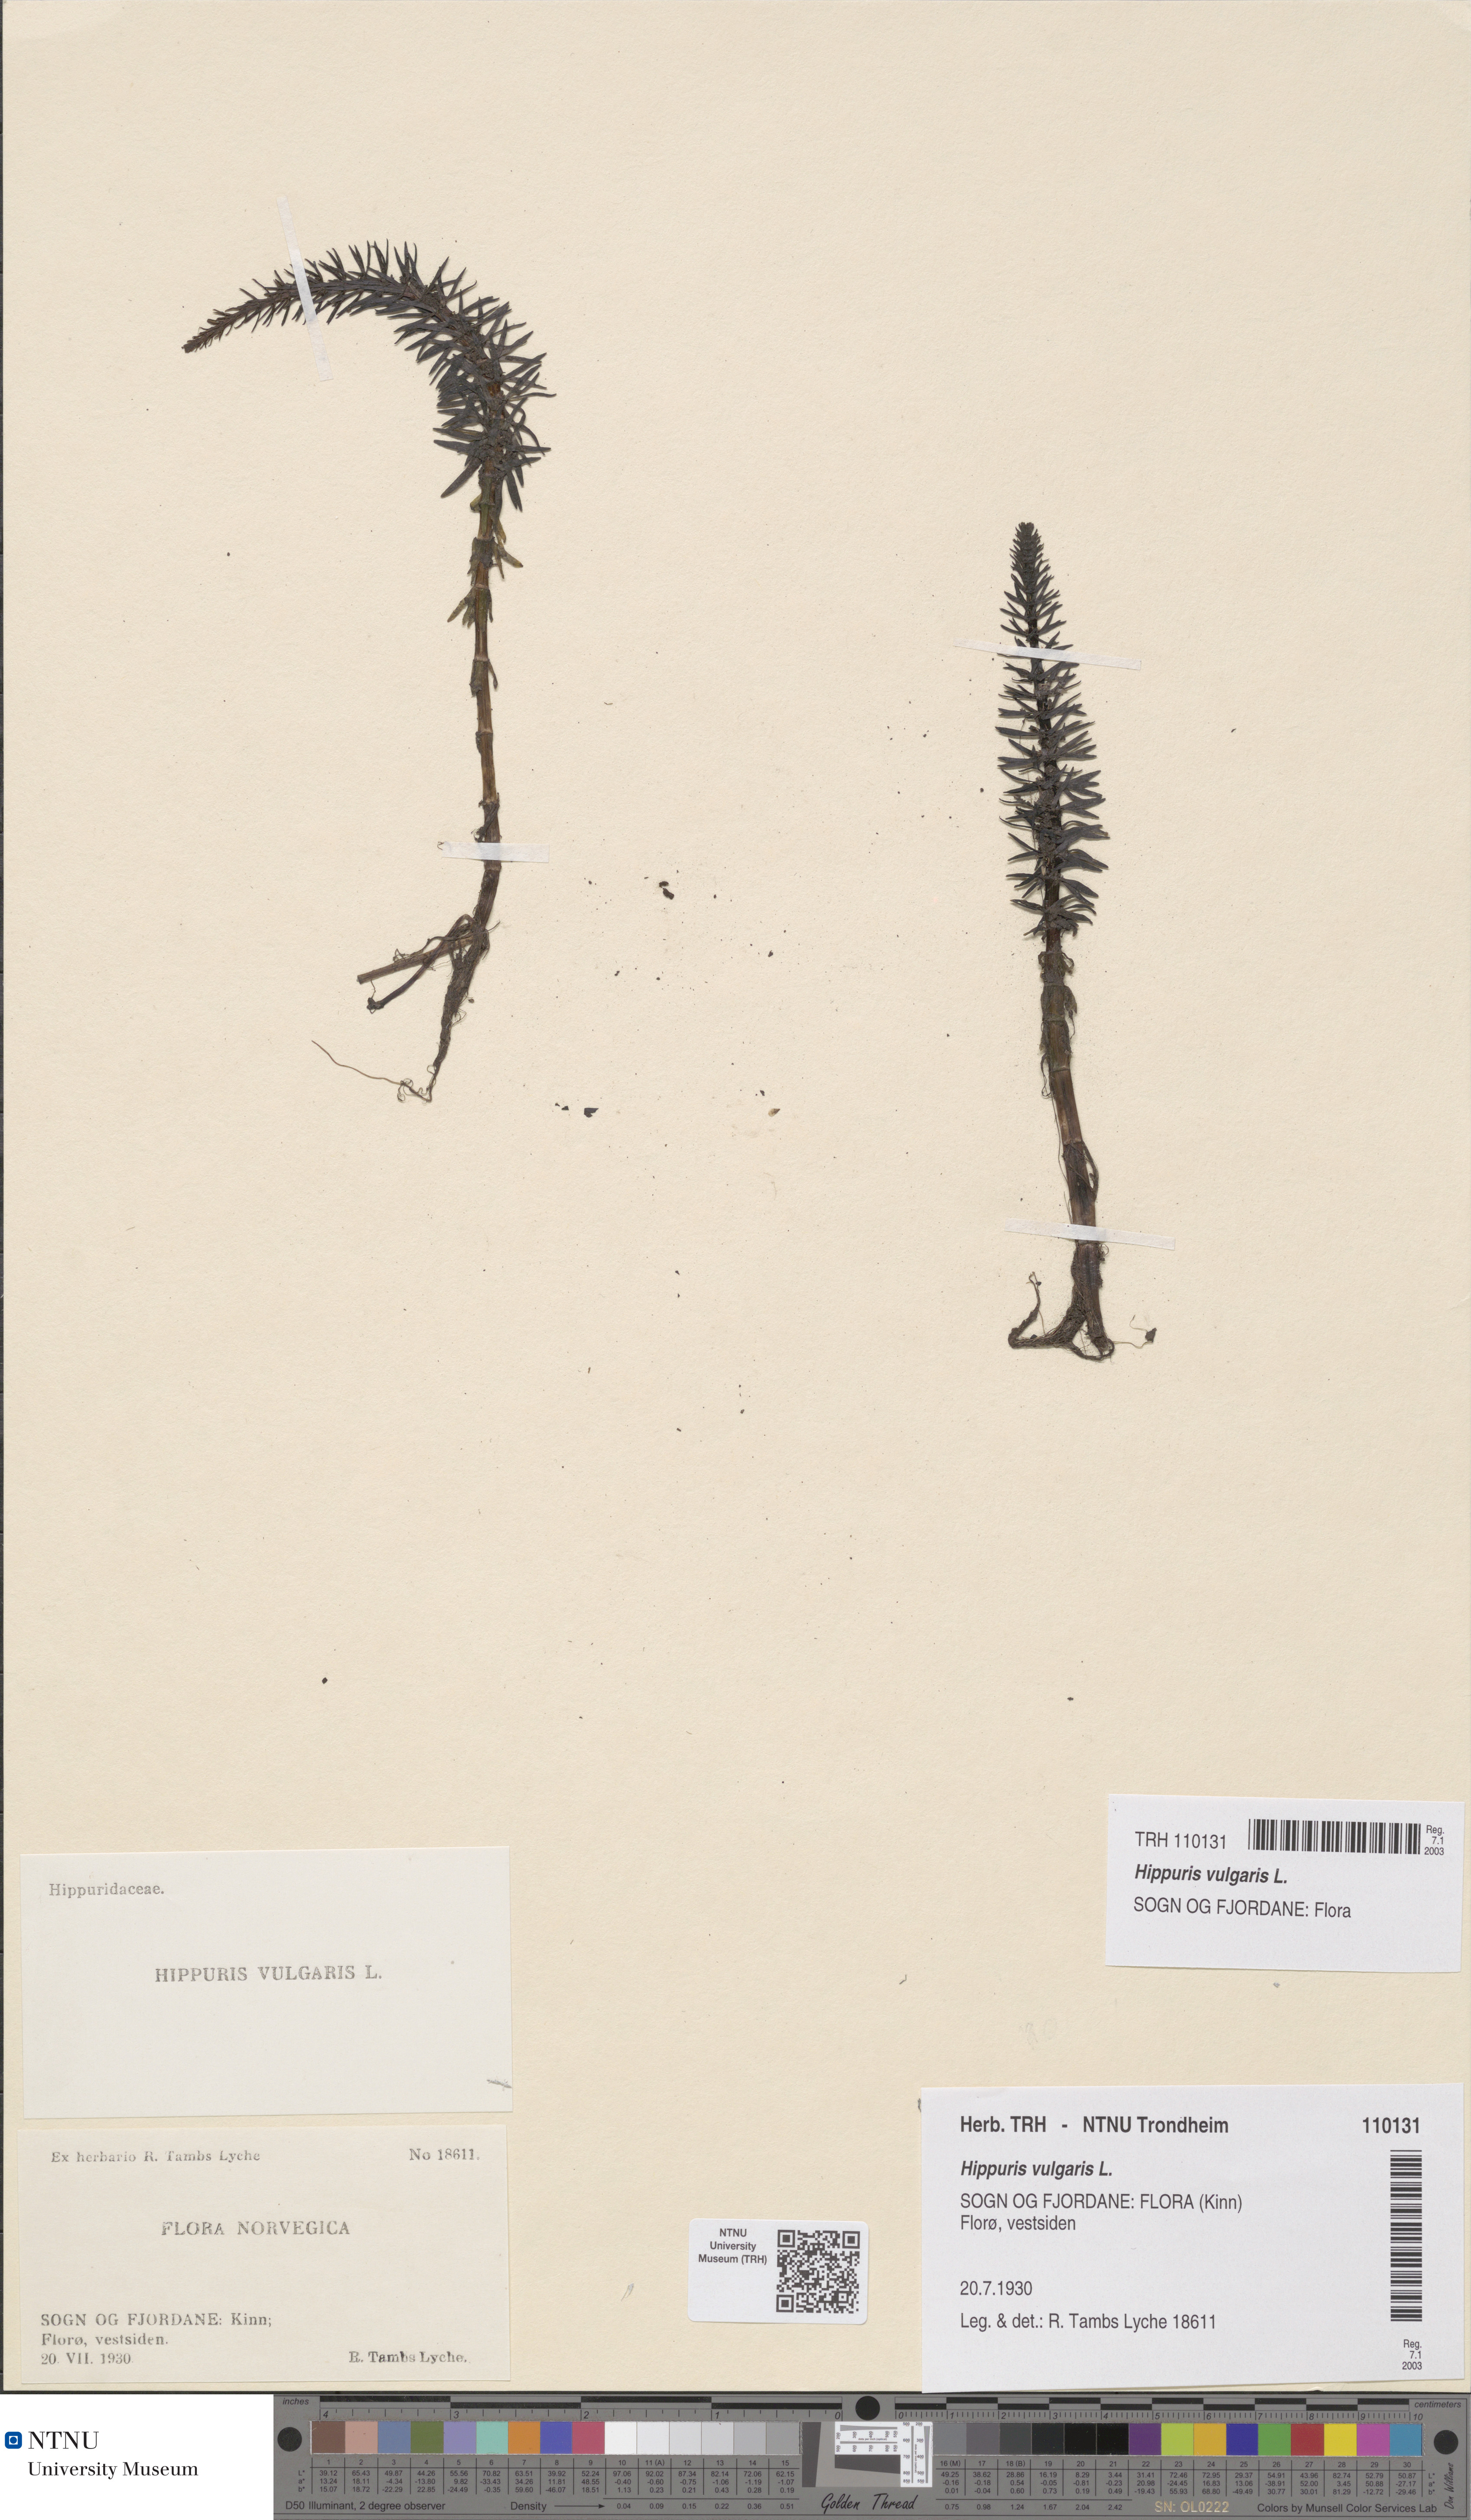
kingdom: Plantae
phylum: Tracheophyta
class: Magnoliopsida
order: Lamiales
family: Plantaginaceae
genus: Hippuris
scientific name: Hippuris vulgaris
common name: Mare's-tail
